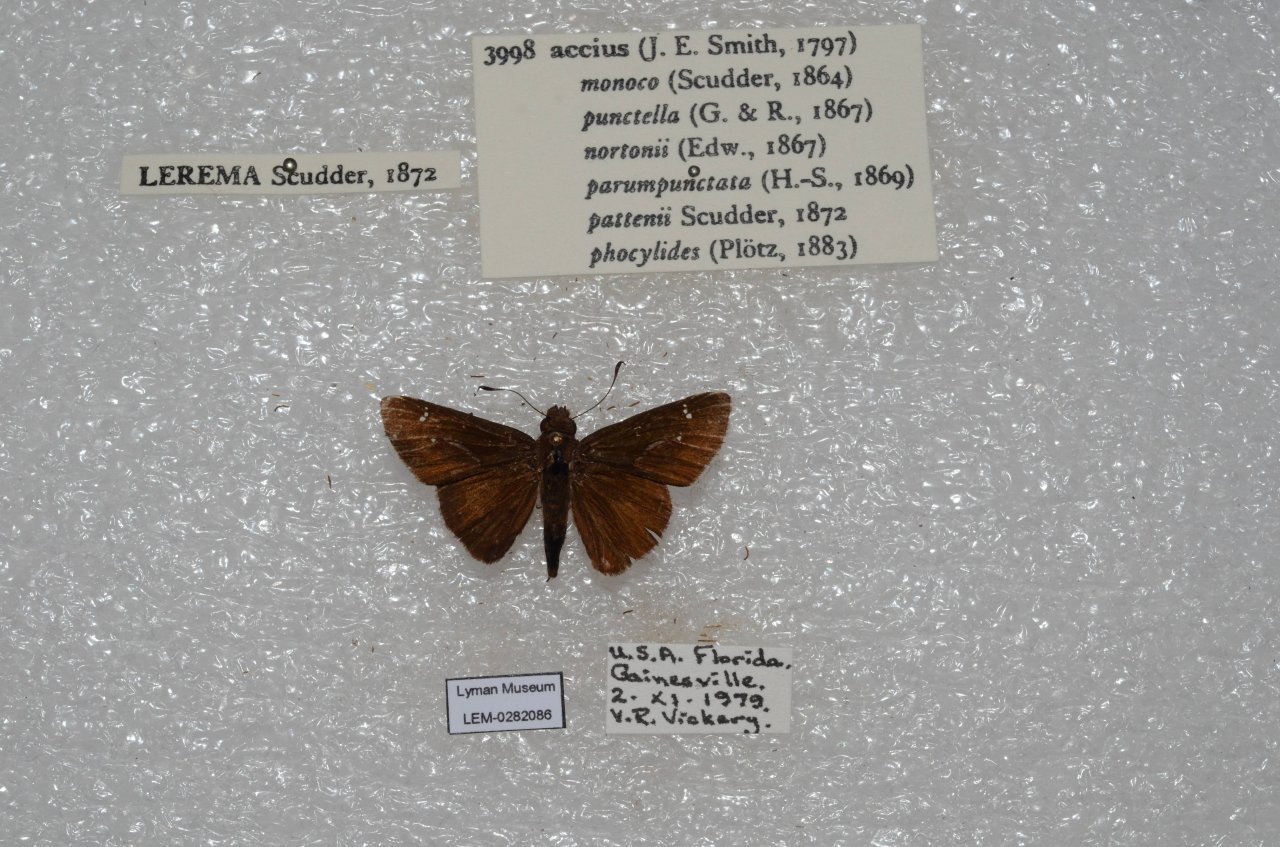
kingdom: Animalia
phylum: Arthropoda
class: Insecta
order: Lepidoptera
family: Hesperiidae
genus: Lerema
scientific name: Lerema accius
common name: Clouded Skipper
